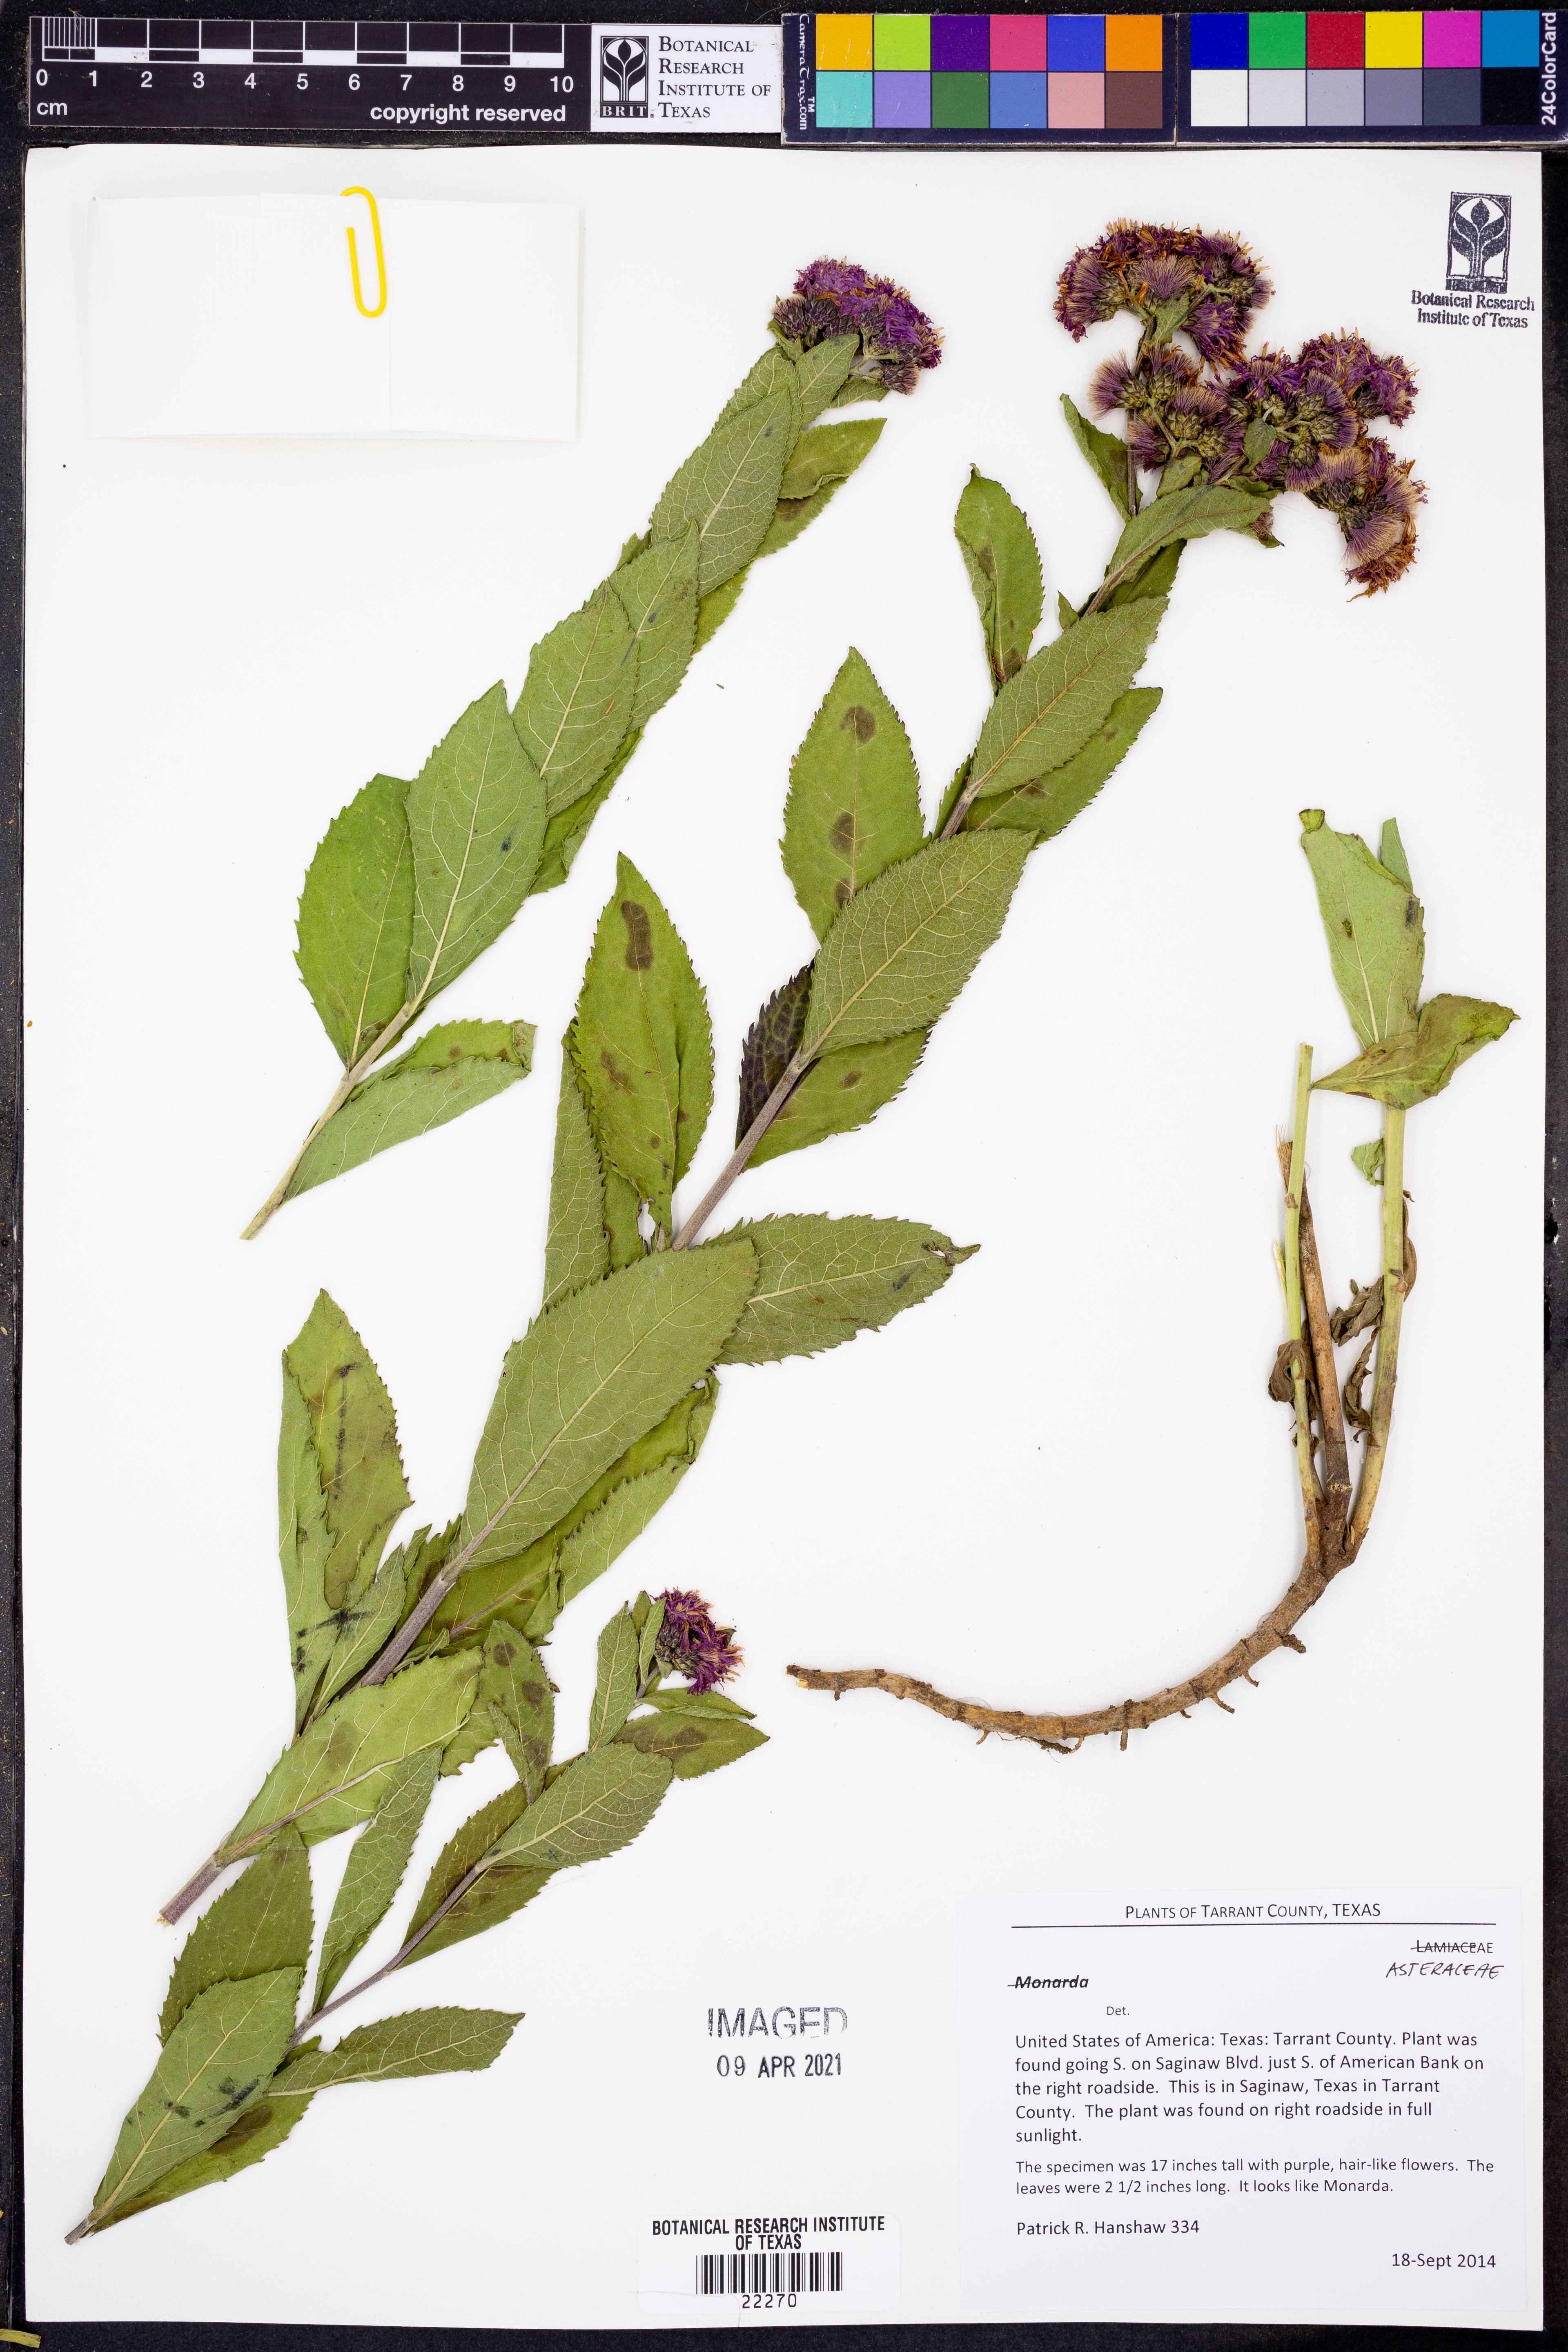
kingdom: Plantae
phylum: Tracheophyta
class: Magnoliopsida
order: Asterales
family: Asteraceae
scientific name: Asteraceae
